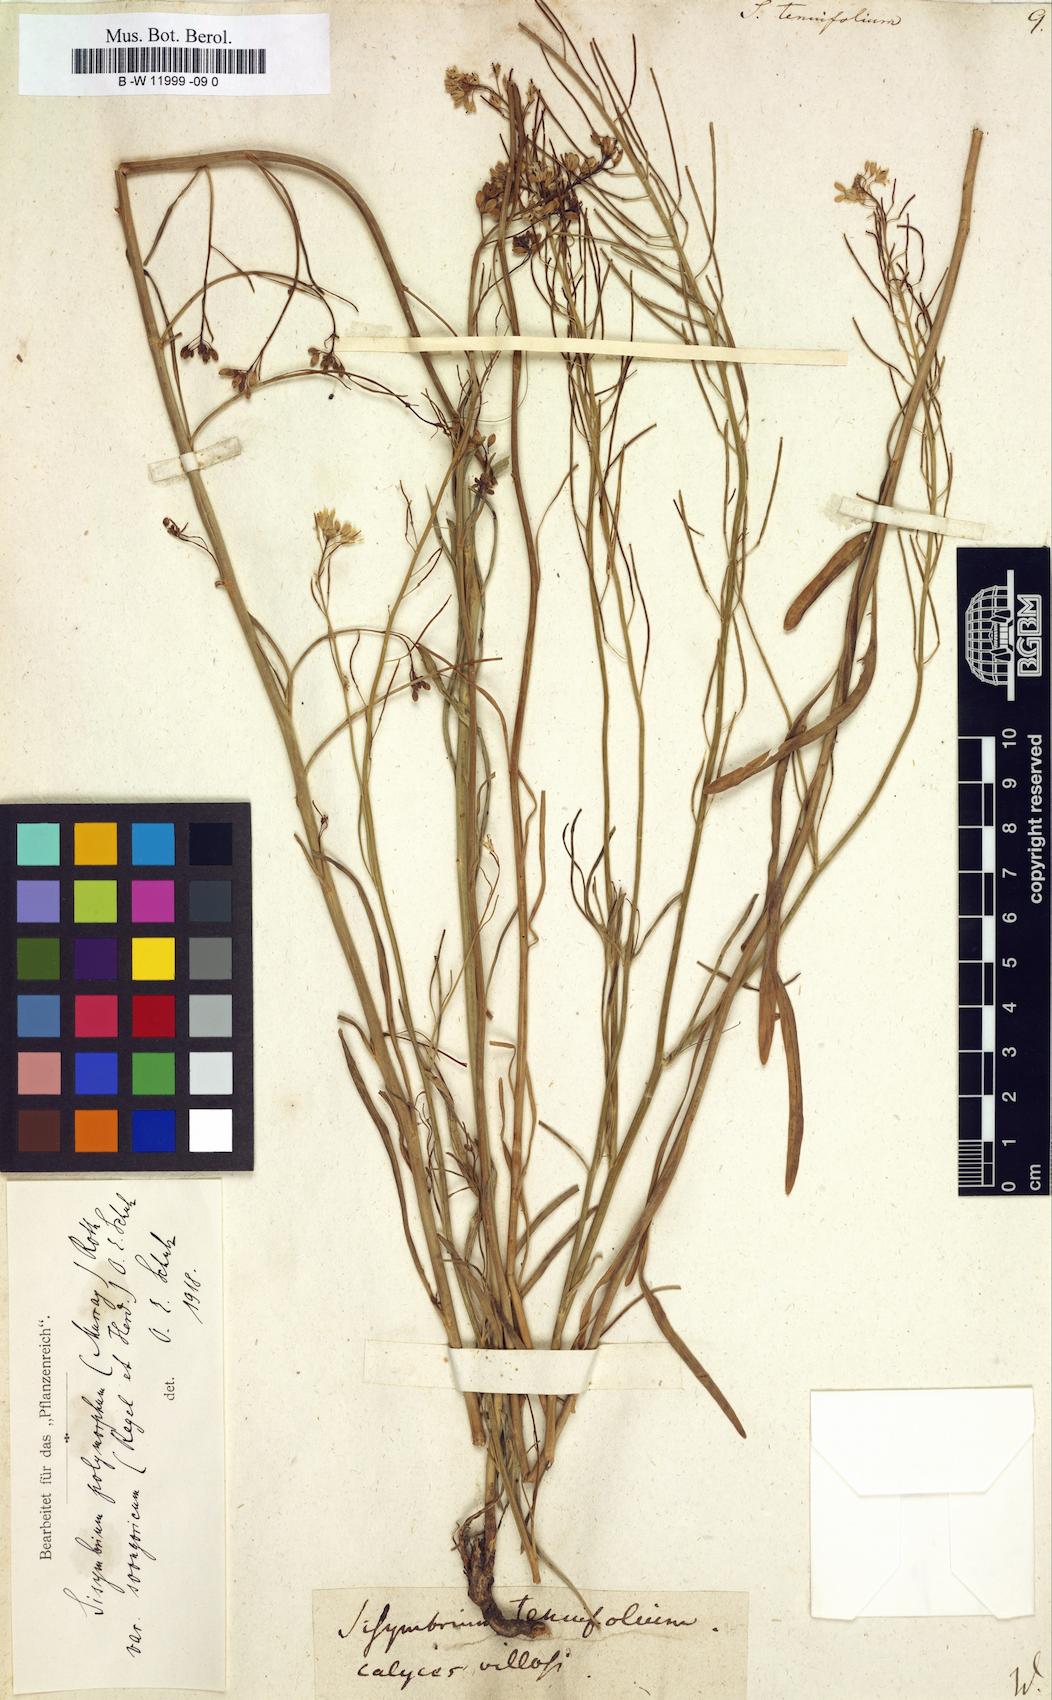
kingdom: Plantae
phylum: Tracheophyta
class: Magnoliopsida
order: Brassicales
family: Brassicaceae
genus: Sisymbrium
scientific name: Sisymbrium tenuifolium
